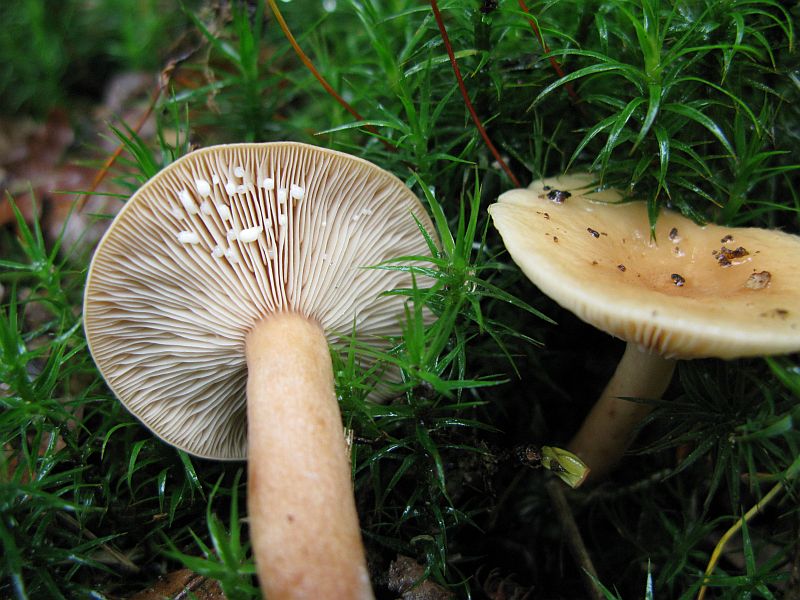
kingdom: Fungi
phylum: Basidiomycota
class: Agaricomycetes
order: Russulales
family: Russulaceae
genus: Lactarius
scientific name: Lactarius subdulcis
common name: sødlig mælkehat
